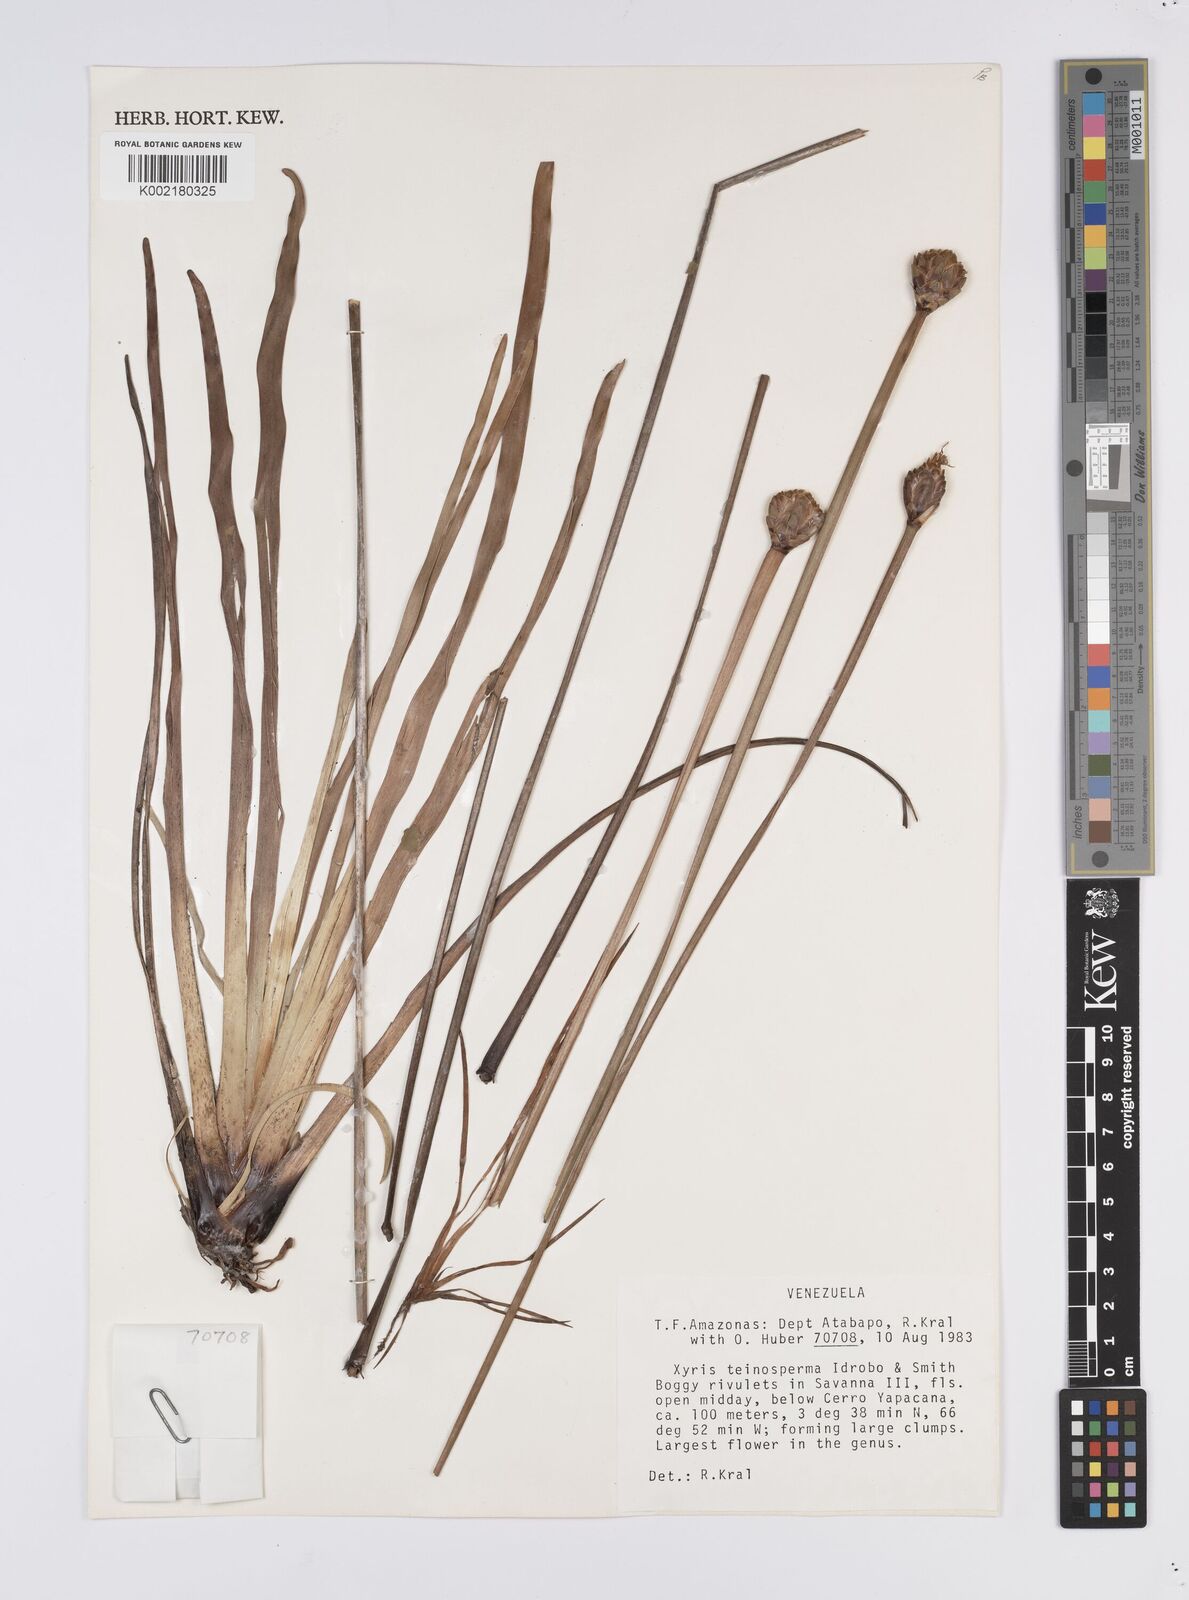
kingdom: Plantae
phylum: Tracheophyta
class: Liliopsida
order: Poales
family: Xyridaceae
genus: Xyris
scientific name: Xyris teinosperma
